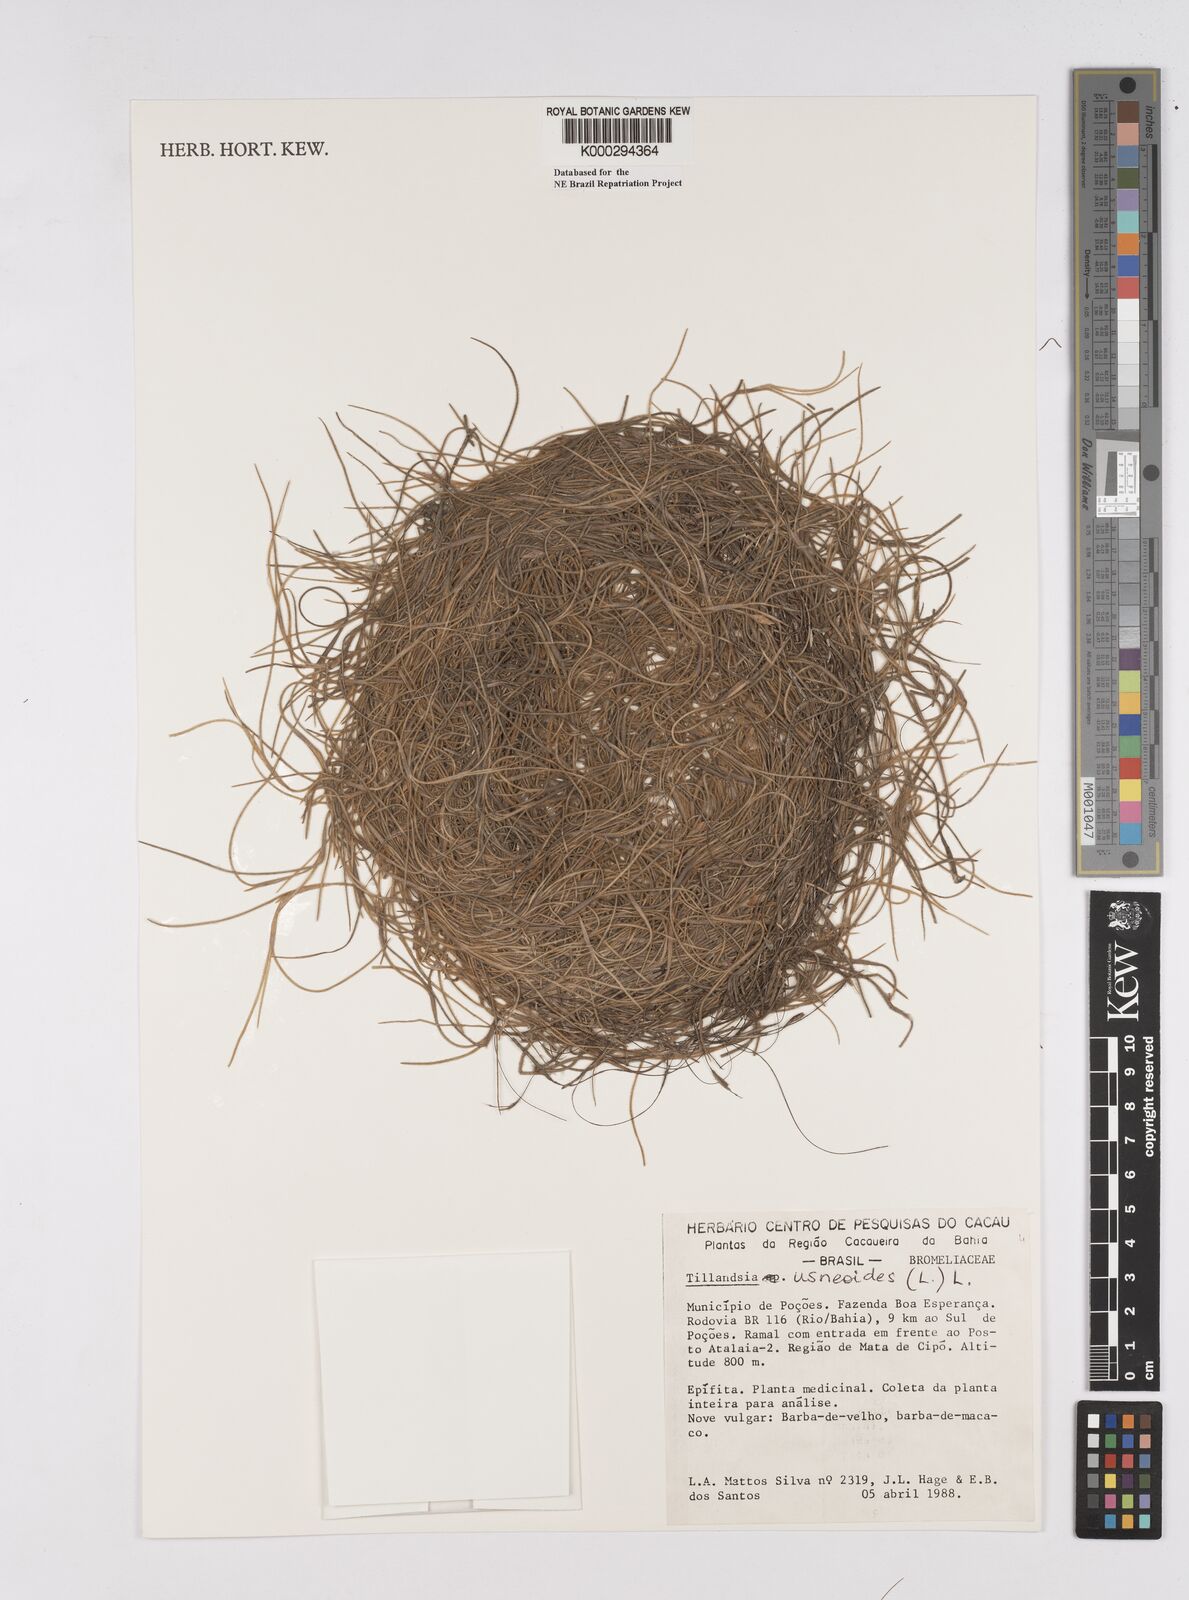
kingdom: Plantae
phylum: Tracheophyta
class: Liliopsida
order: Poales
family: Bromeliaceae
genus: Tillandsia
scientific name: Tillandsia usneoides
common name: Spanish moss
